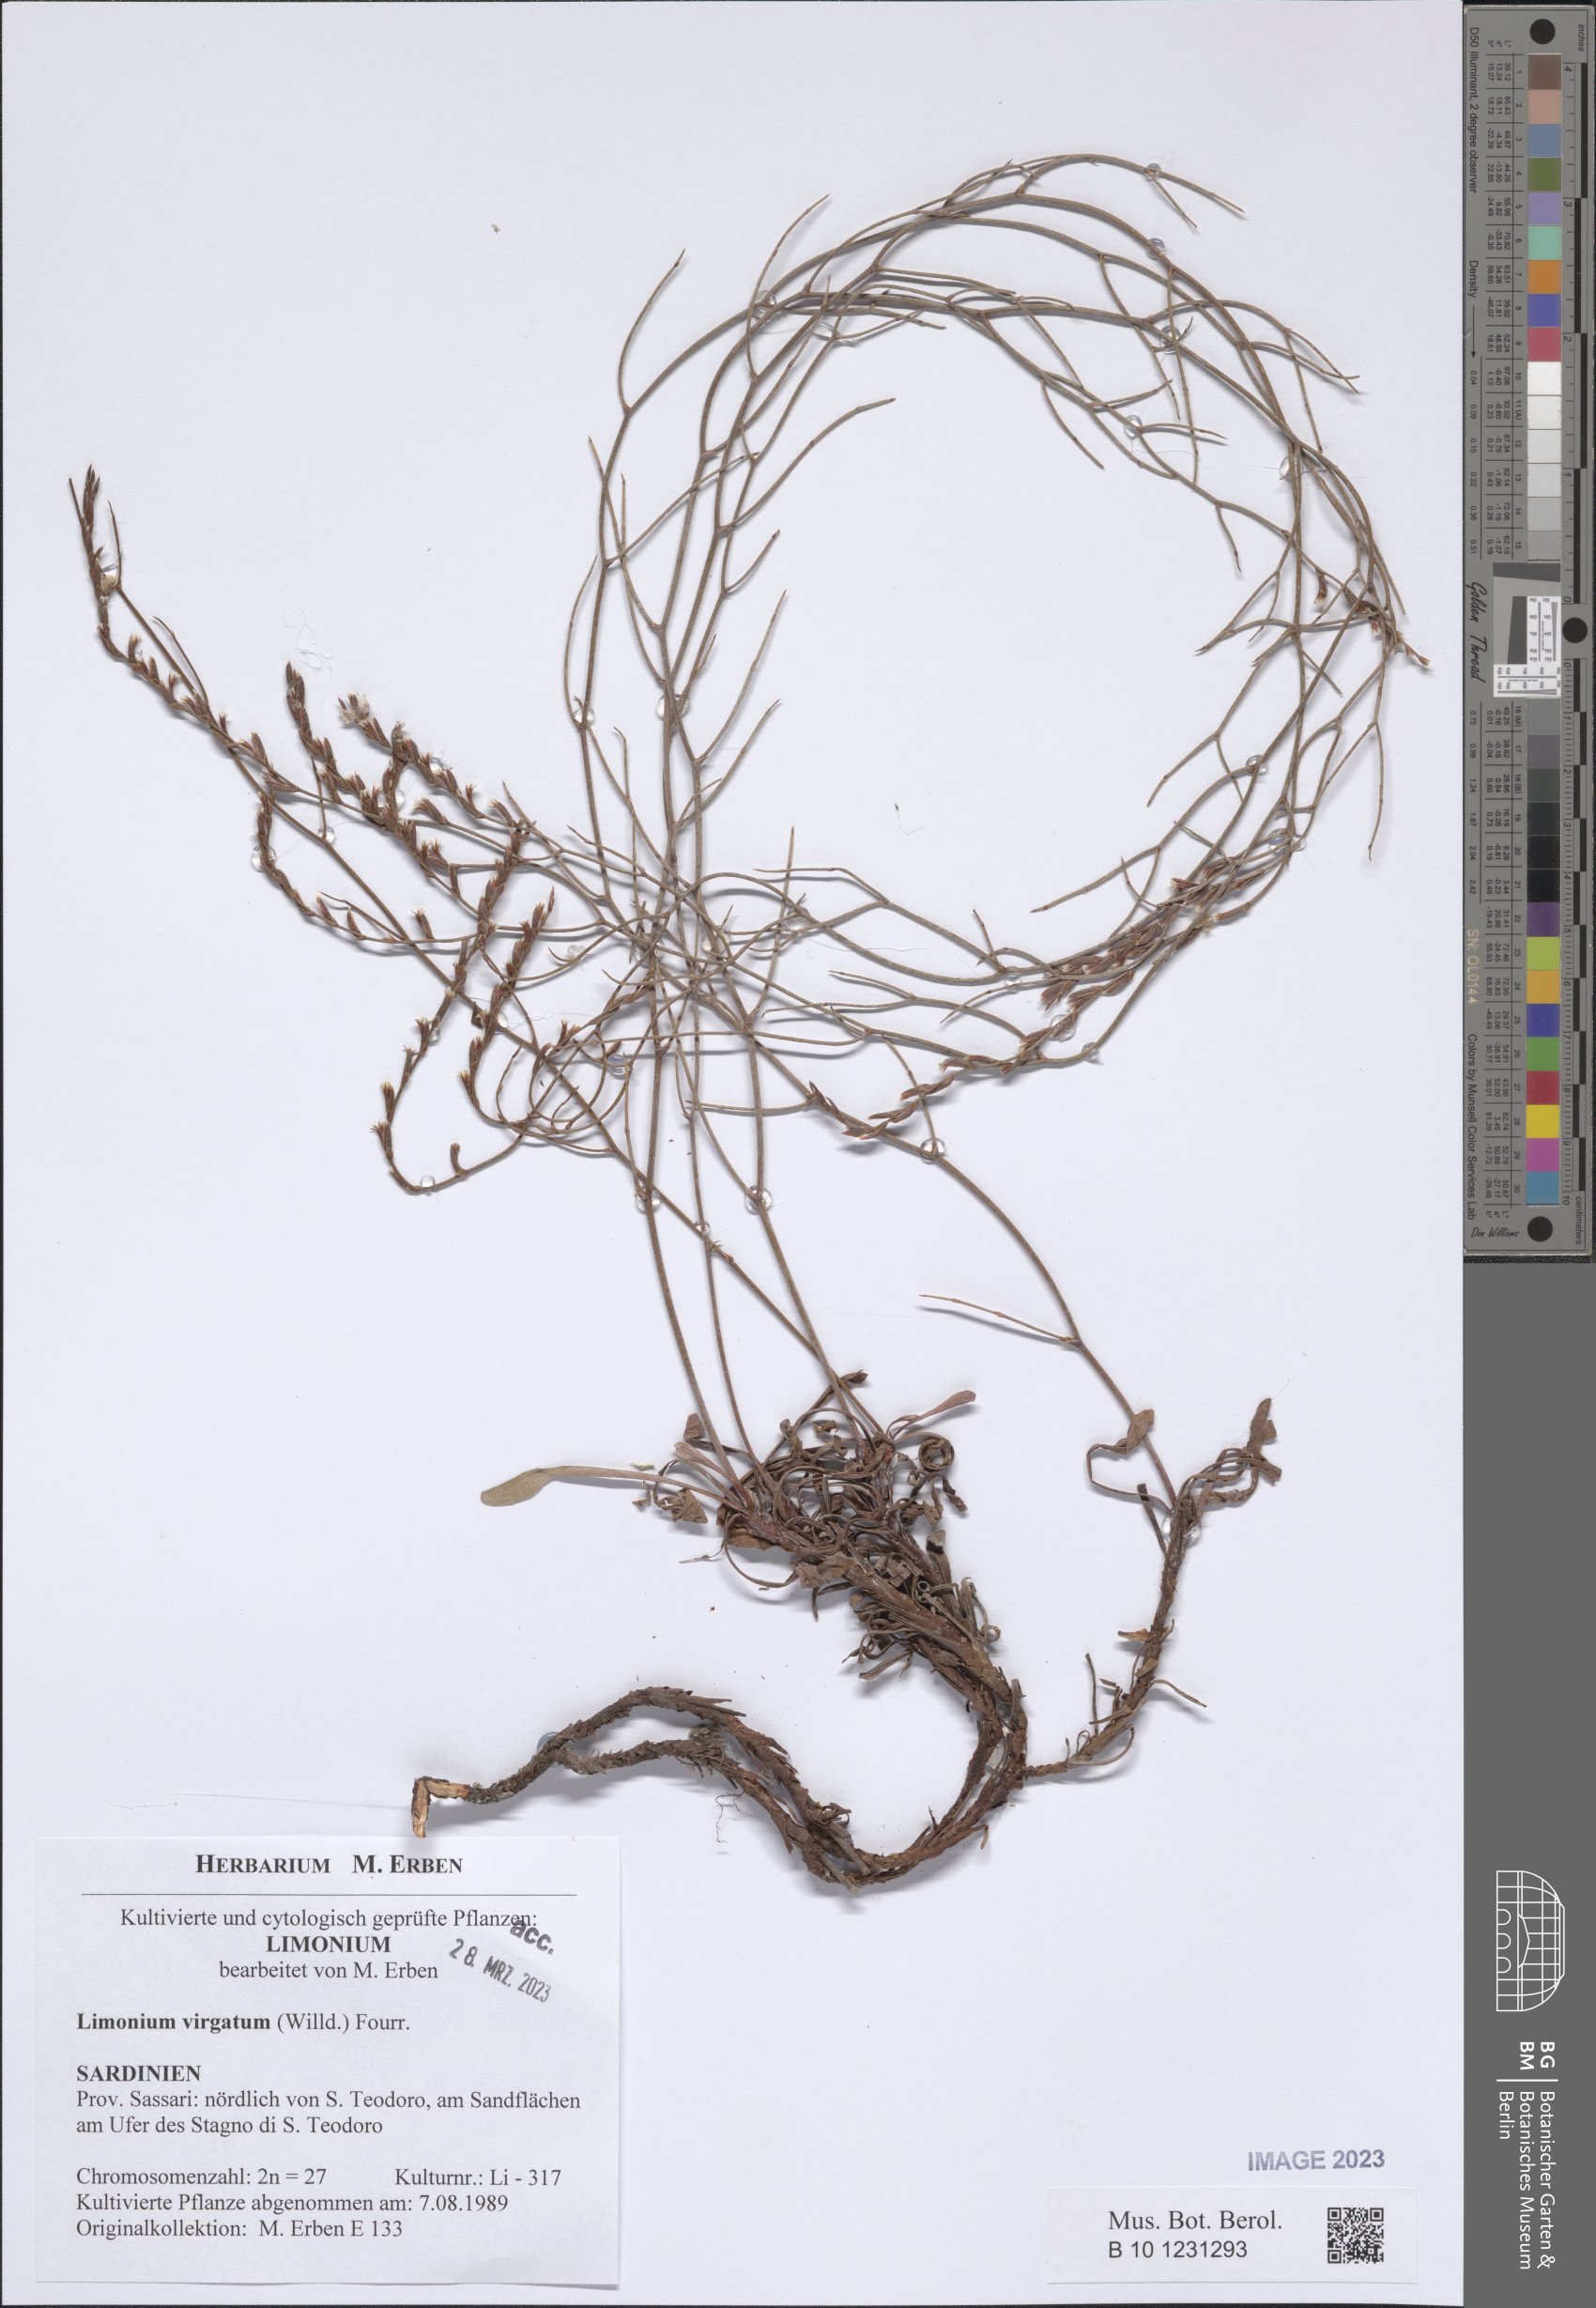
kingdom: Plantae
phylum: Tracheophyta
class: Magnoliopsida
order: Caryophyllales
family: Plumbaginaceae
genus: Limonium
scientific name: Limonium virgatum
